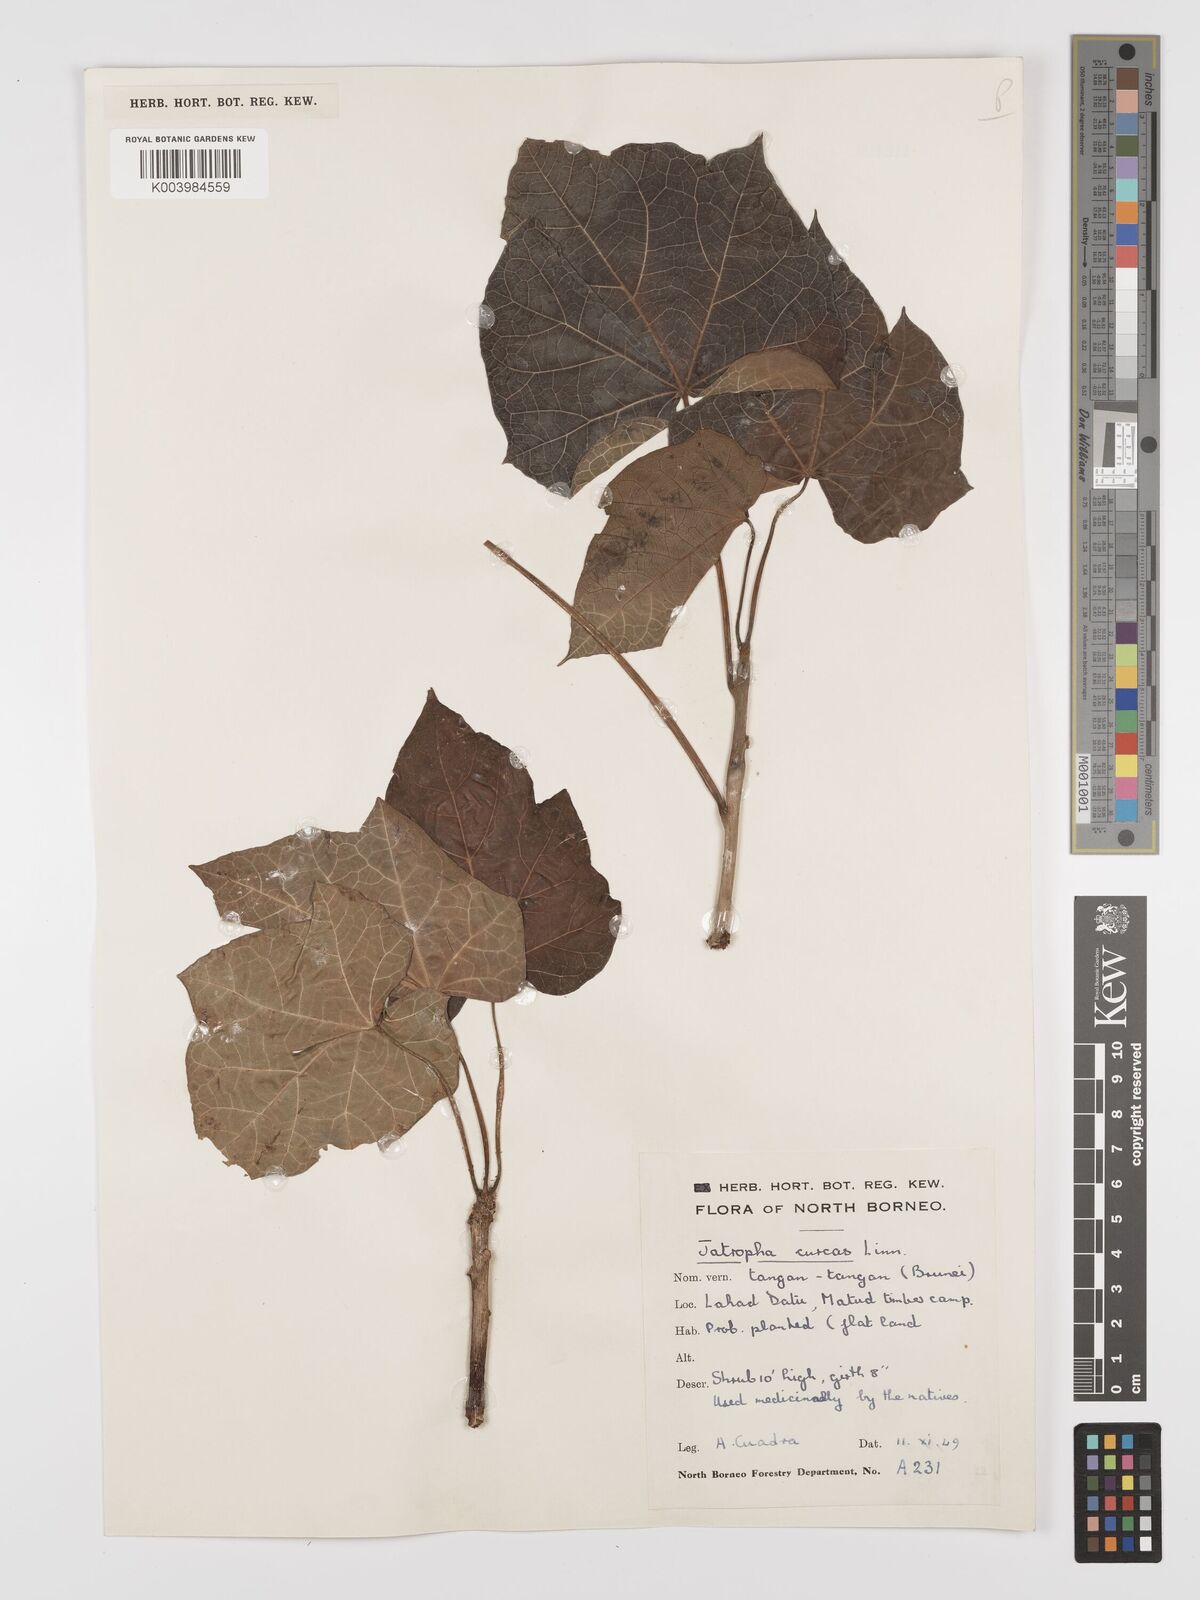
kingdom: Plantae
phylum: Tracheophyta
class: Magnoliopsida
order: Malpighiales
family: Euphorbiaceae
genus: Jatropha
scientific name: Jatropha curcas
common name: Barbados nut
